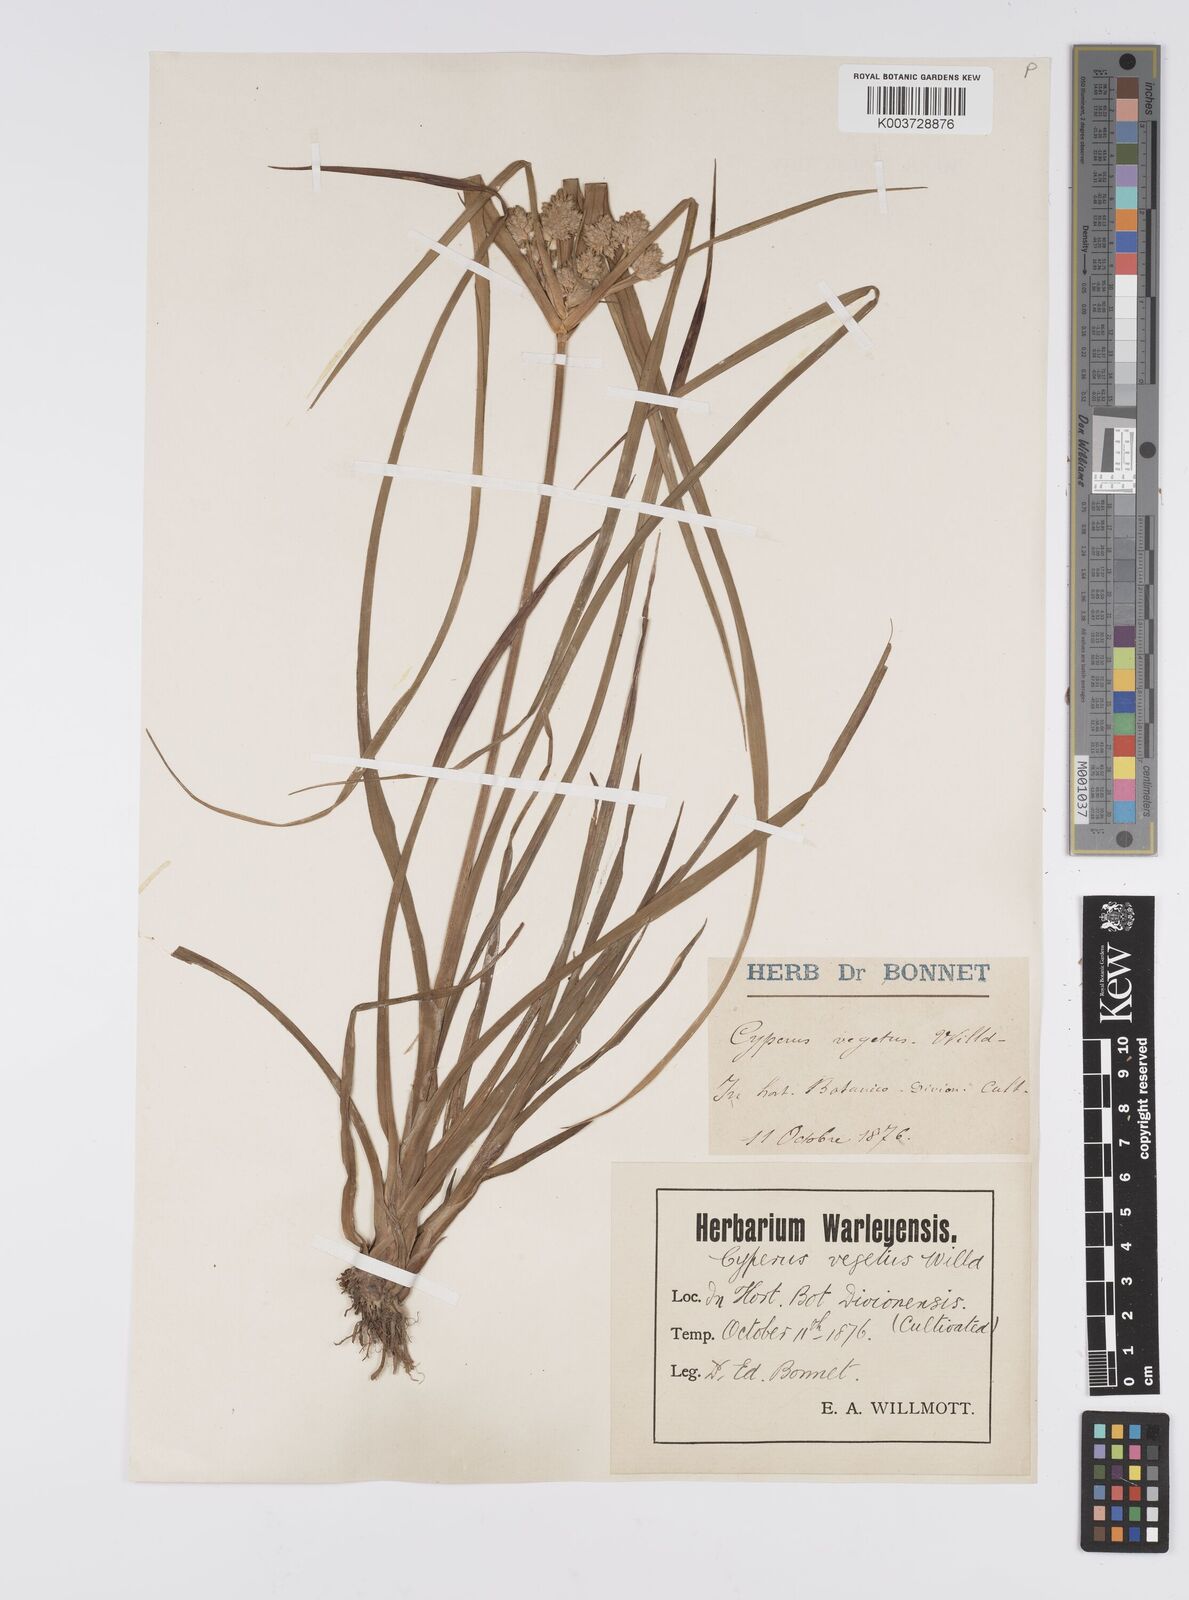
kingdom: Plantae
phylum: Tracheophyta
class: Liliopsida
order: Poales
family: Cyperaceae
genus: Cyperus
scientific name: Cyperus eragrostis
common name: Tall flatsedge
